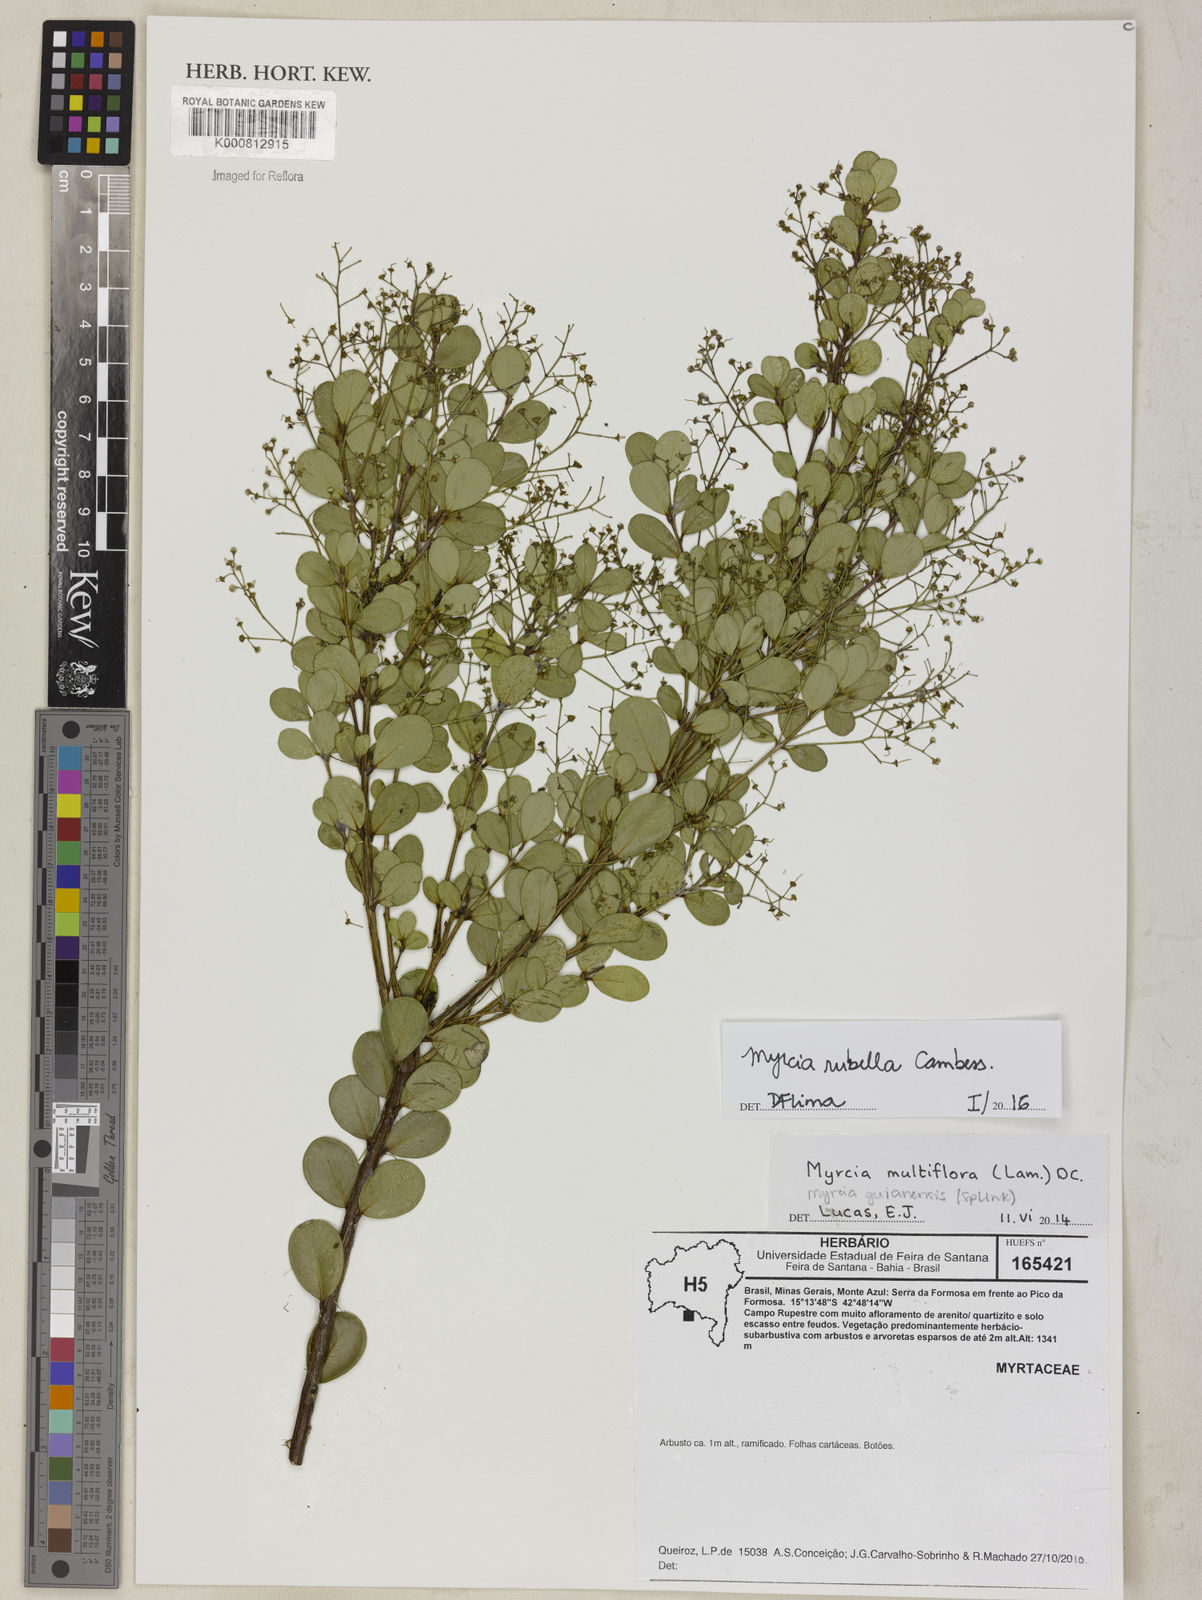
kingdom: Plantae
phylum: Tracheophyta
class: Magnoliopsida
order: Myrtales
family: Myrtaceae
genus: Myrcia
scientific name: Myrcia guianensis
